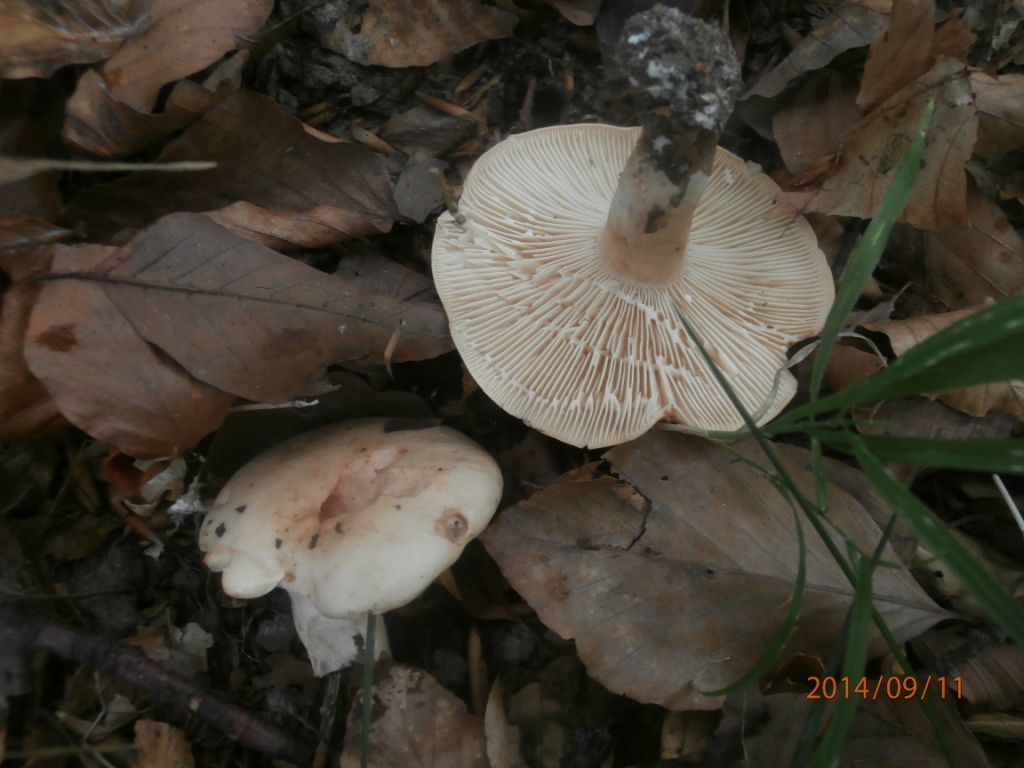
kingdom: Fungi
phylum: Basidiomycota
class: Agaricomycetes
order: Russulales
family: Russulaceae
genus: Lactarius
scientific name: Lactarius pallidus
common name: bleg mælkehat
